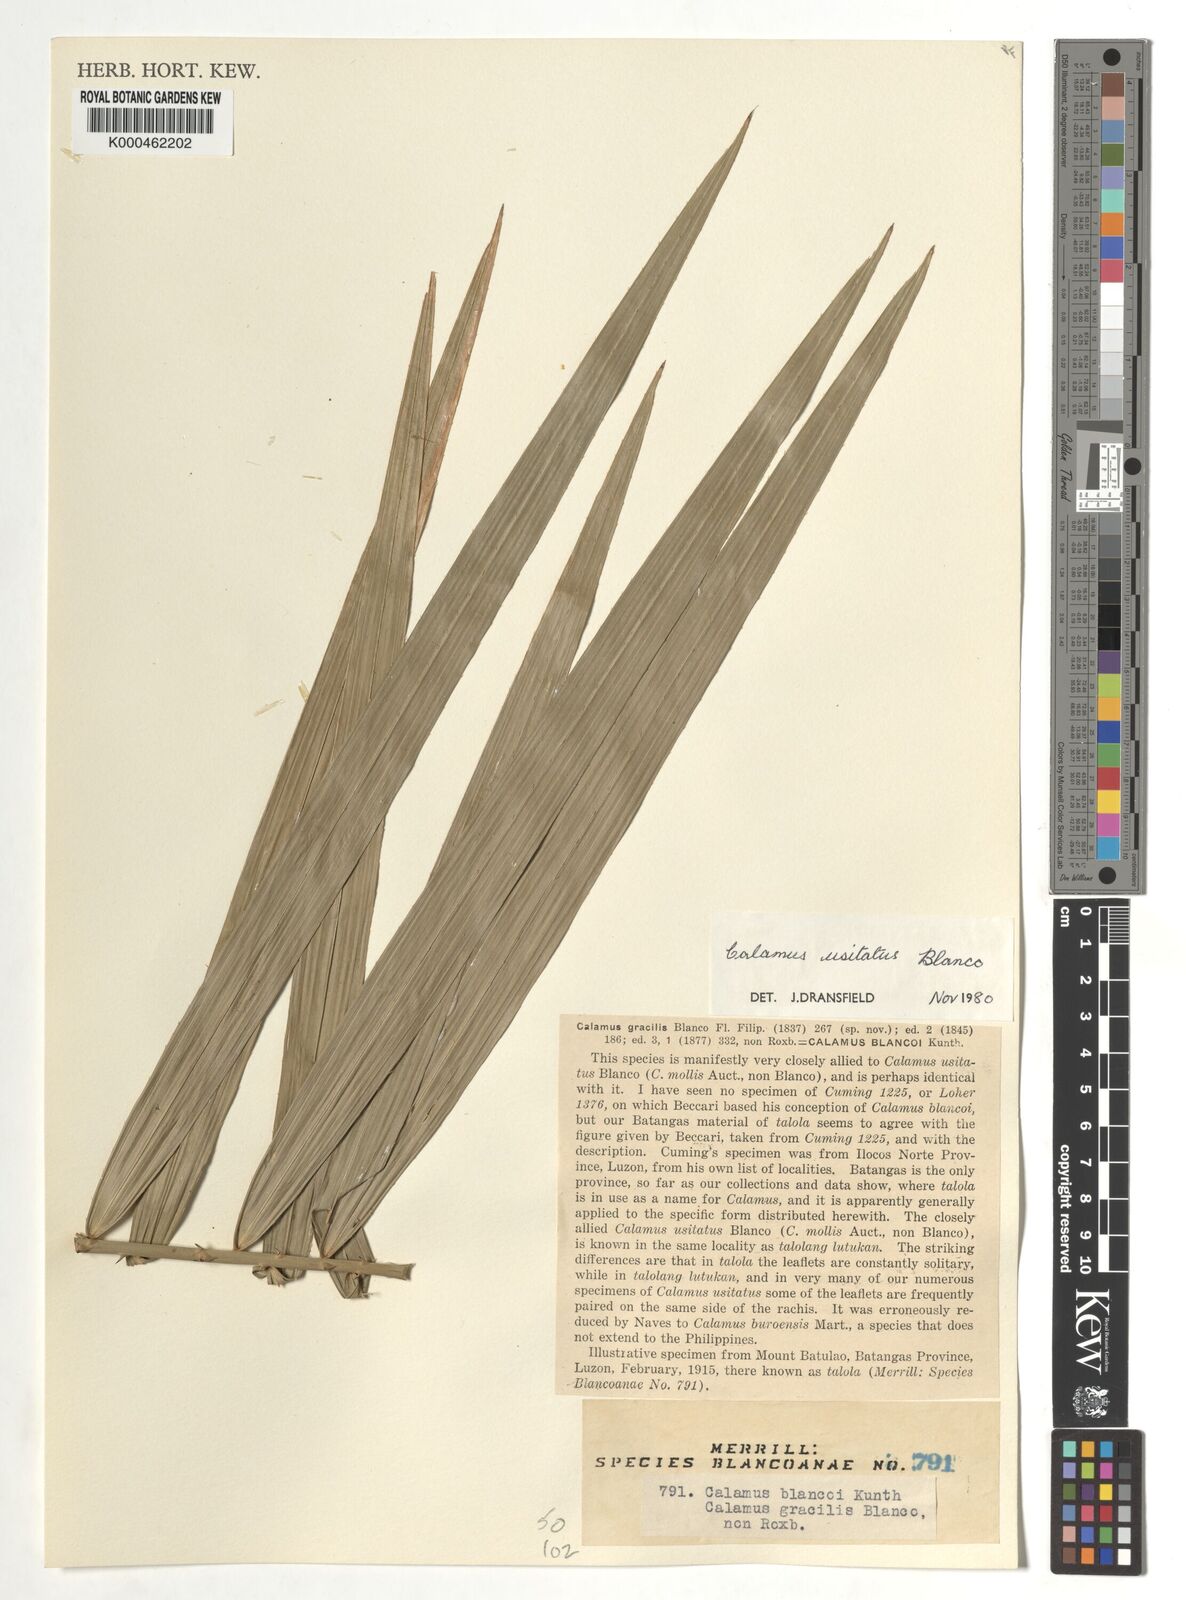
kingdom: Plantae
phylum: Tracheophyta
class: Liliopsida
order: Arecales
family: Arecaceae
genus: Calamus
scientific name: Calamus usitatus
